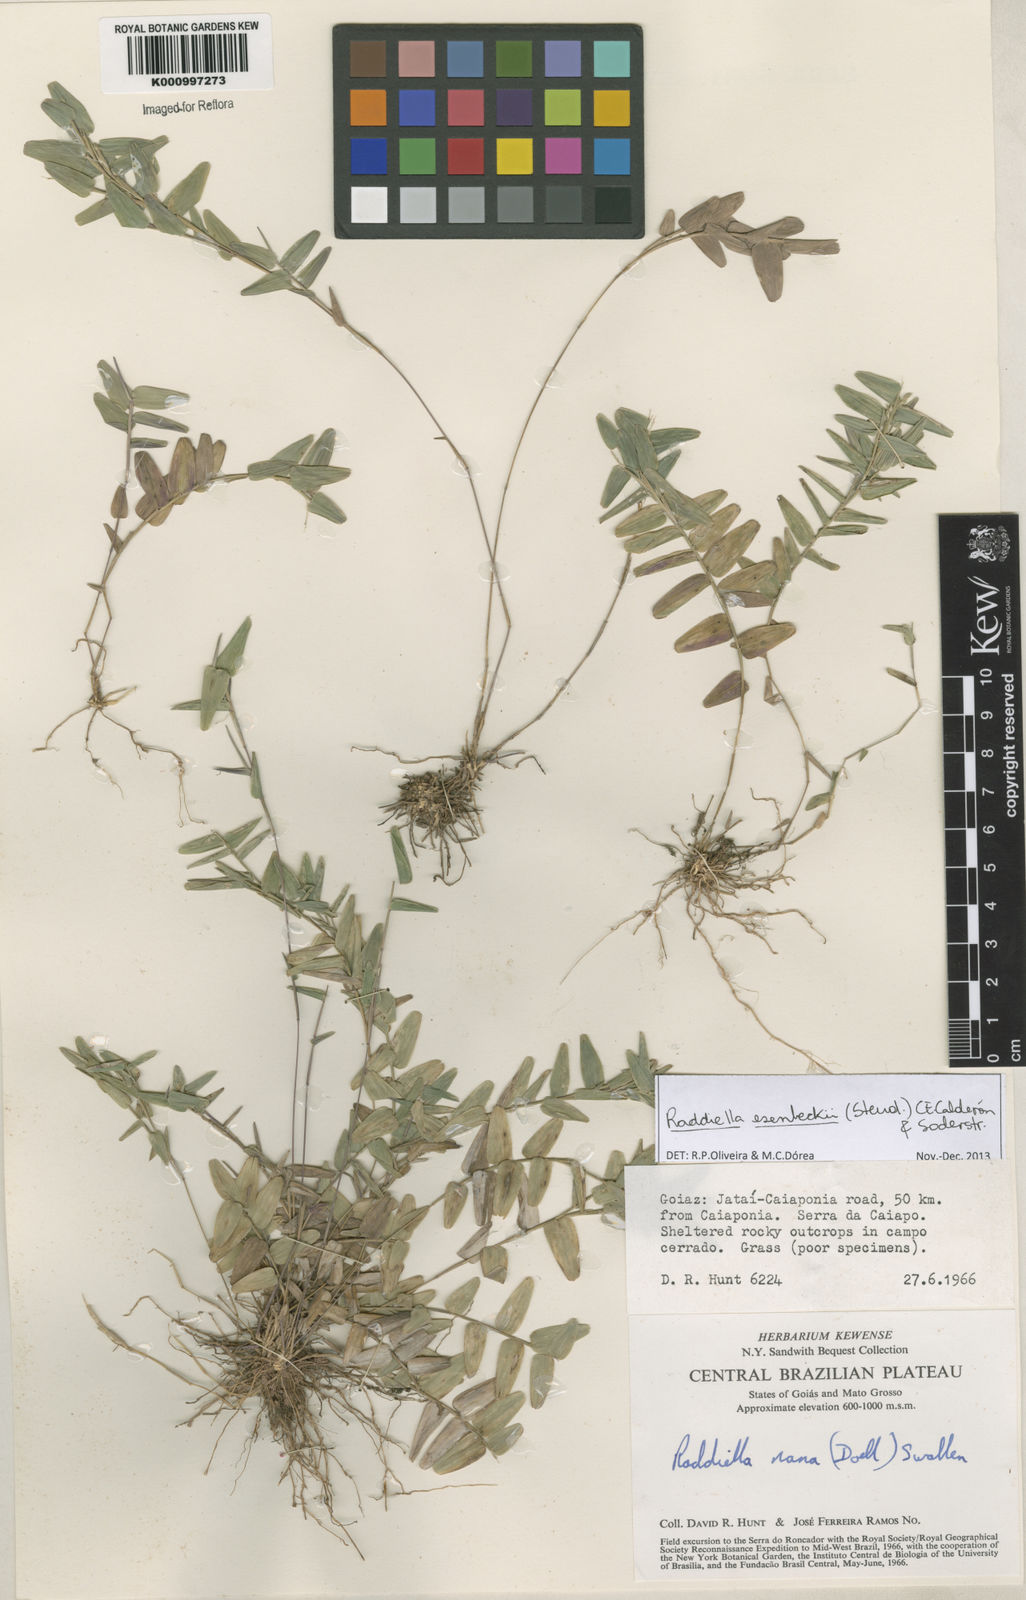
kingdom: Plantae
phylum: Tracheophyta
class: Liliopsida
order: Poales
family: Poaceae
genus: Raddiella
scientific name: Raddiella
